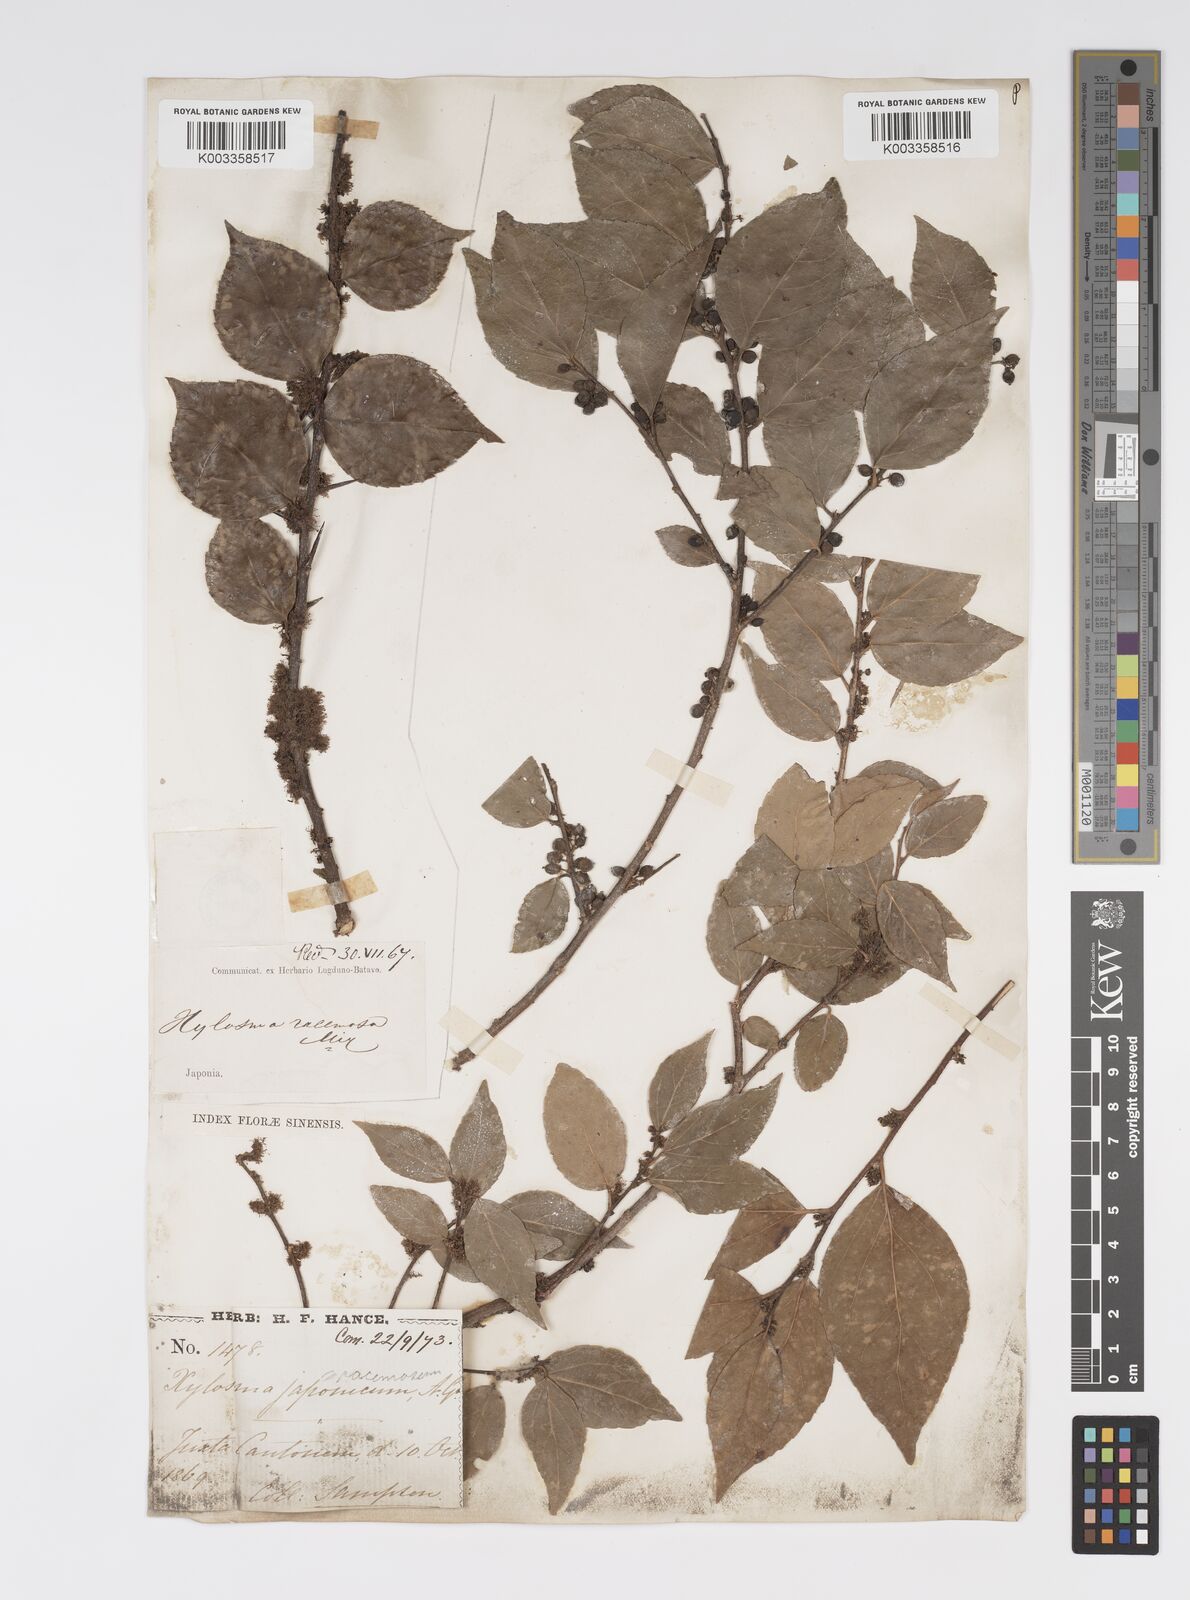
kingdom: Plantae
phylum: Tracheophyta
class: Magnoliopsida
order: Malpighiales
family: Salicaceae
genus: Xylosma
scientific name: Xylosma racemosum
